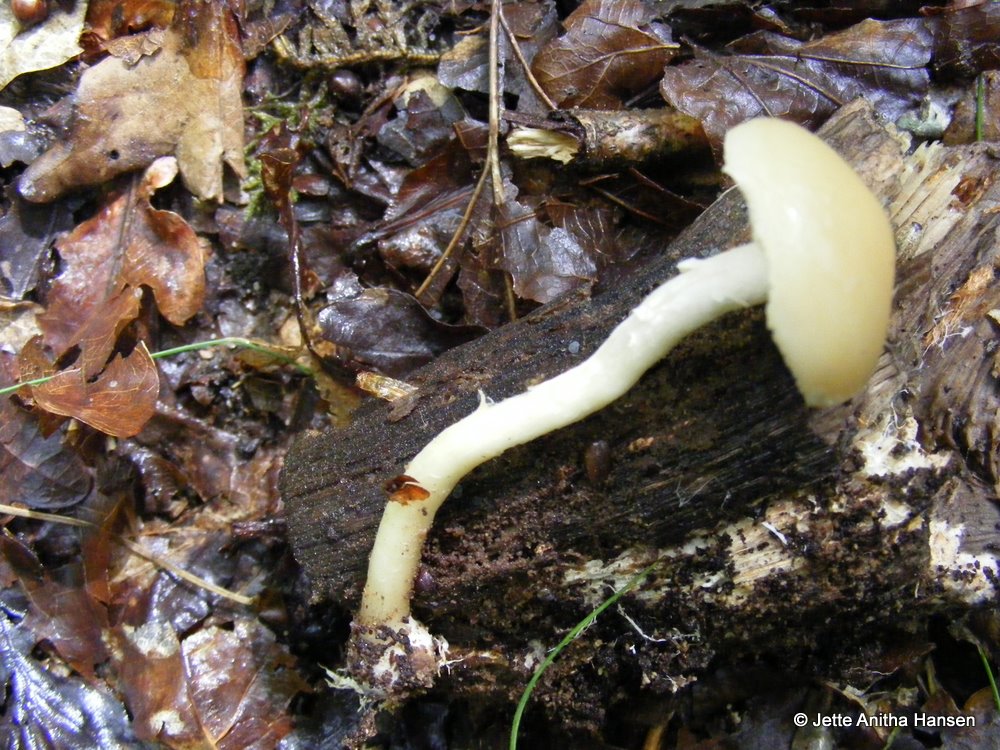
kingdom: Fungi
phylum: Basidiomycota
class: Agaricomycetes
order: Agaricales
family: Strophariaceae
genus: Agrocybe
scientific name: Agrocybe praecox
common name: tidlig agerhat
